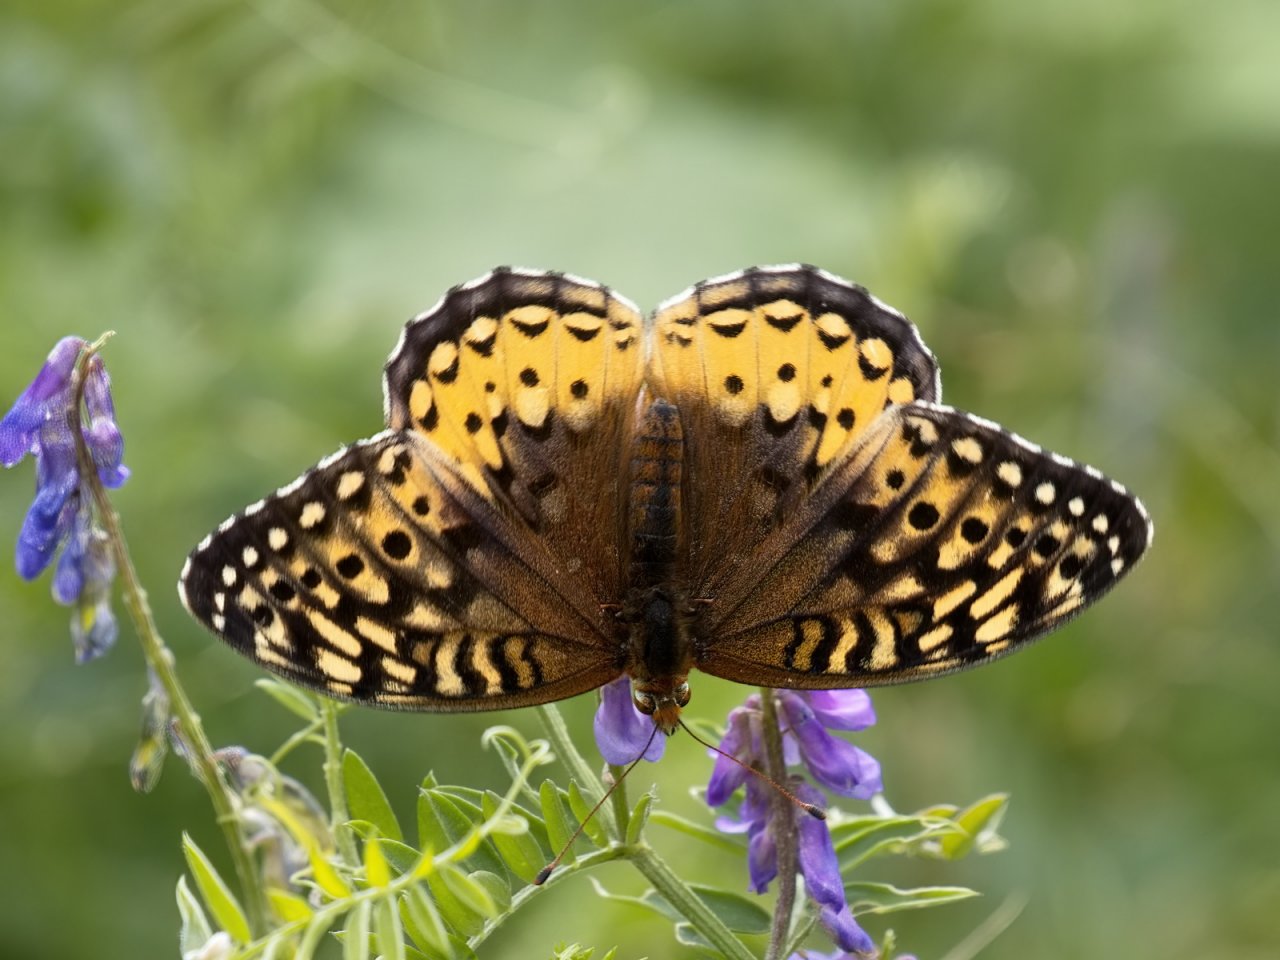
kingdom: Animalia
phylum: Arthropoda
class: Insecta
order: Lepidoptera
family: Nymphalidae
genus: Speyeria
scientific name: Speyeria cybele
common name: Great Spangled Fritillary
